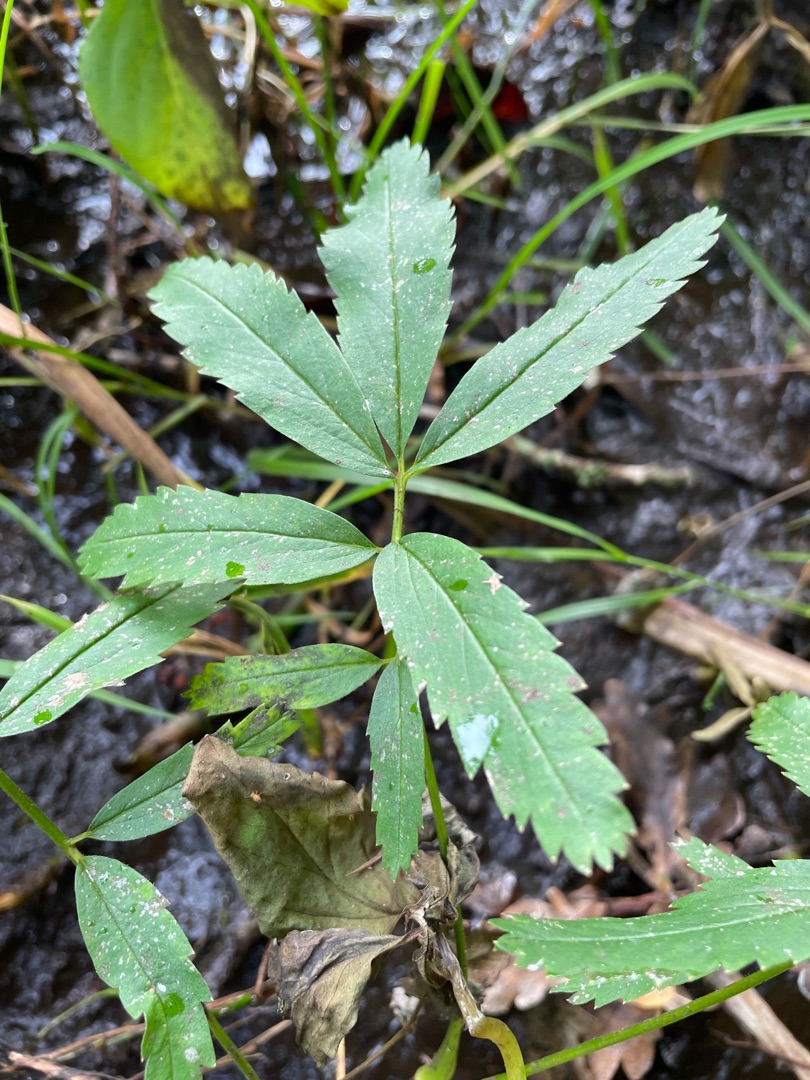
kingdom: Plantae
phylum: Tracheophyta
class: Magnoliopsida
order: Rosales
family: Rosaceae
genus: Comarum
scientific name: Comarum palustre
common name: Kragefod
